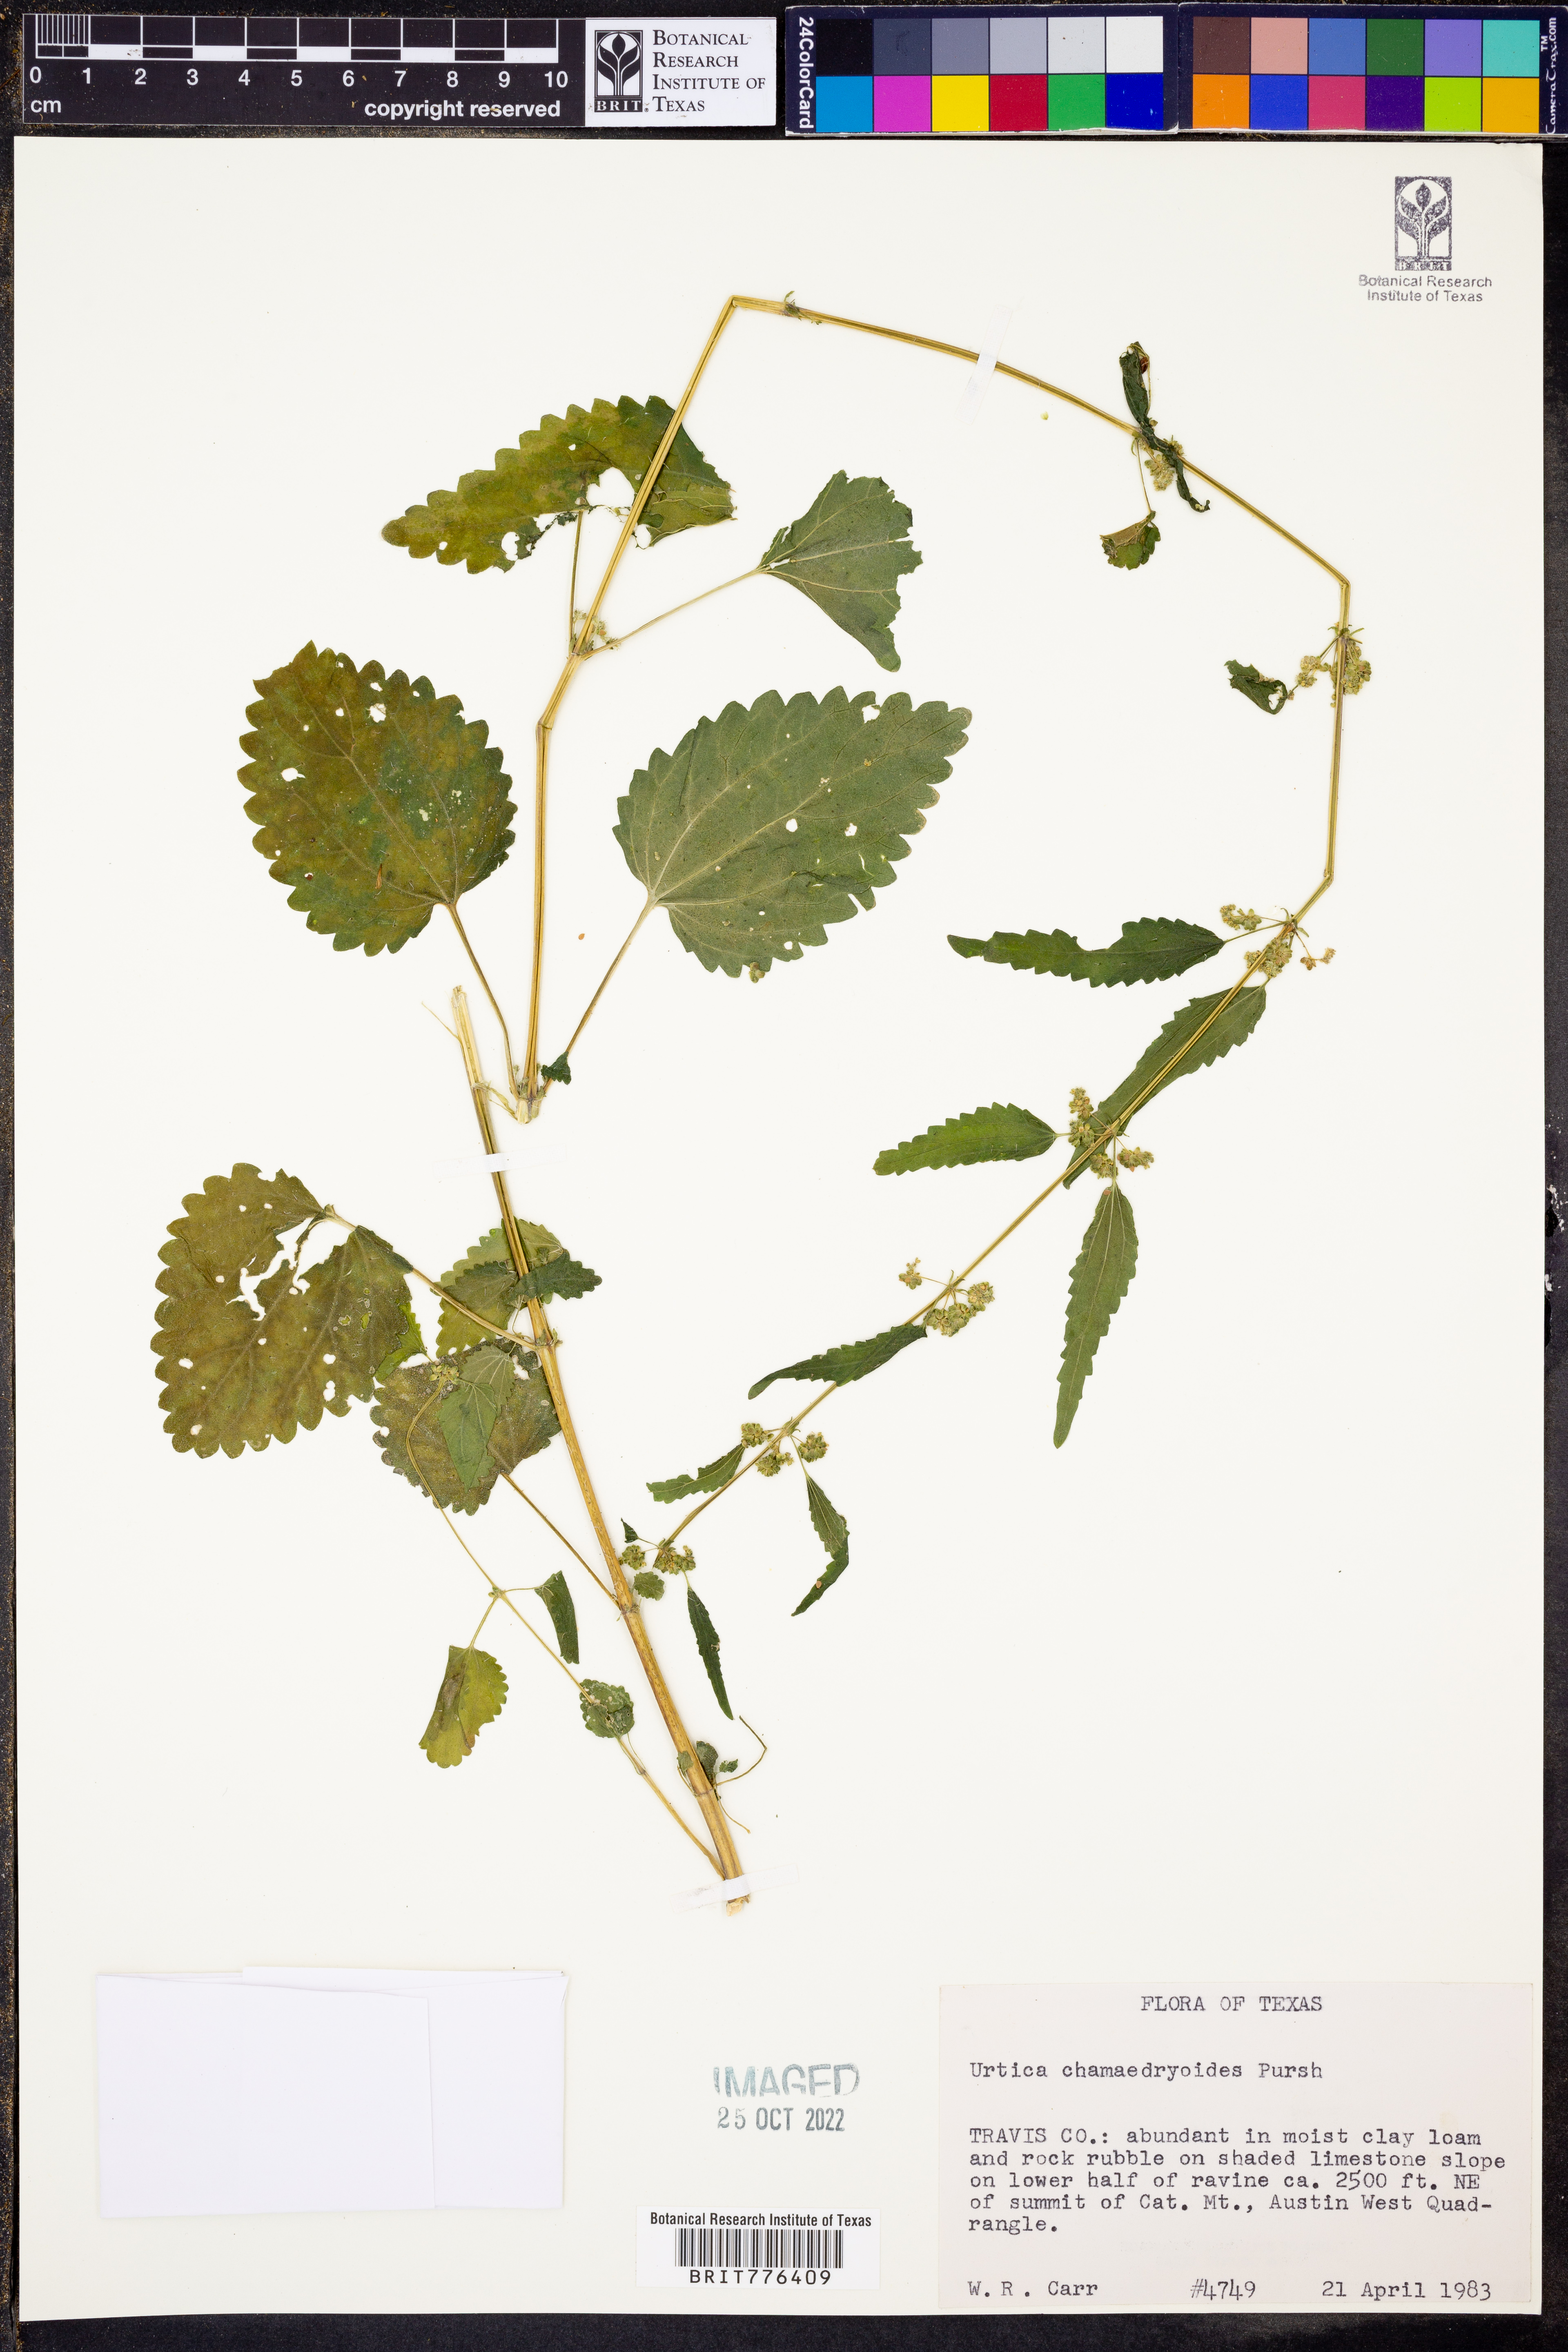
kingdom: Plantae
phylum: Tracheophyta
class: Magnoliopsida
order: Rosales
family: Urticaceae
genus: Urtica
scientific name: Urtica chamaedryoides
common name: Heart-leaf nettle
